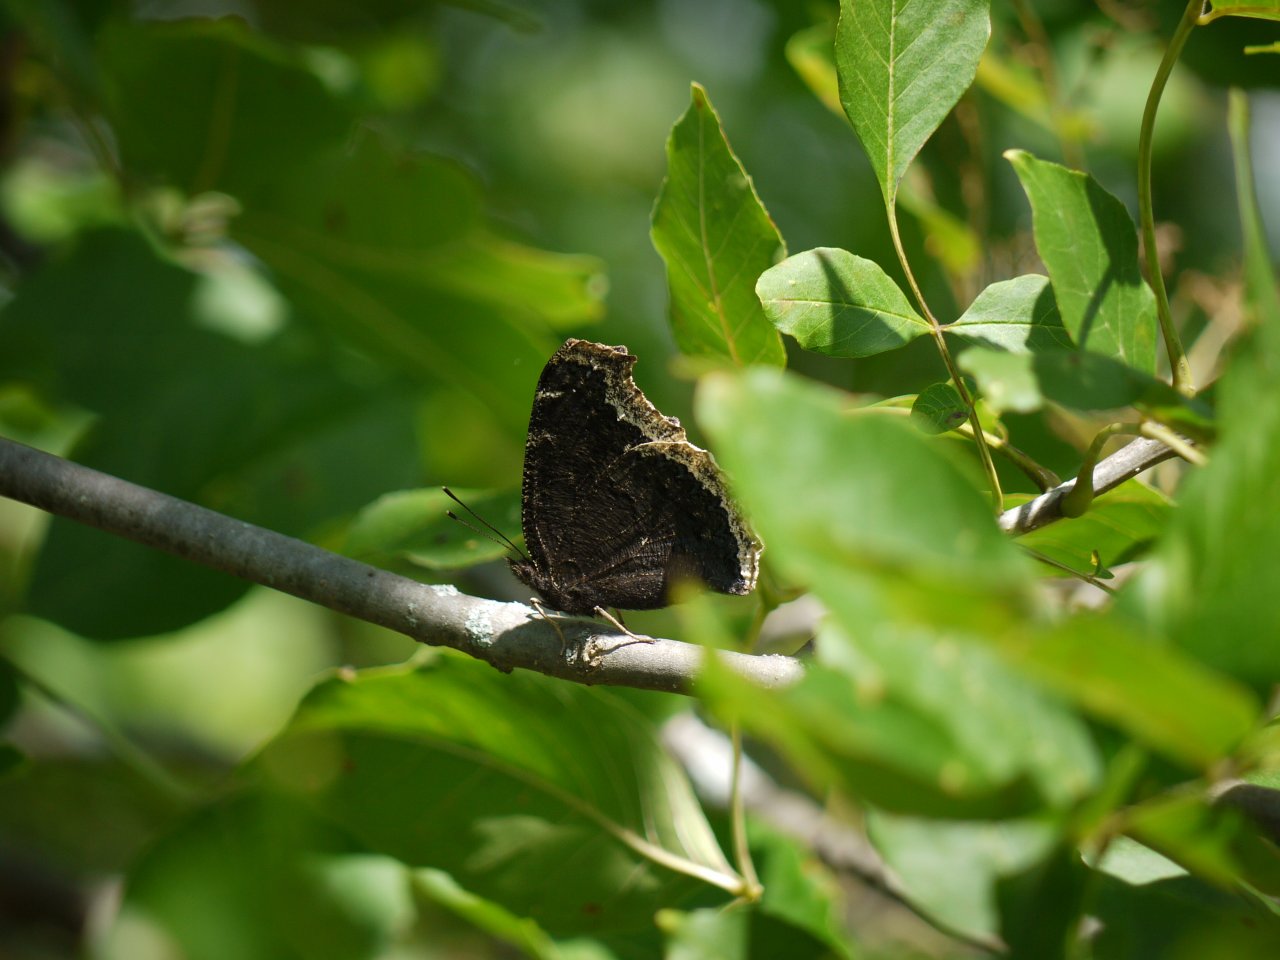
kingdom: Animalia
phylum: Arthropoda
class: Insecta
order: Lepidoptera
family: Nymphalidae
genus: Nymphalis
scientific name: Nymphalis antiopa
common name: Mourning Cloak
